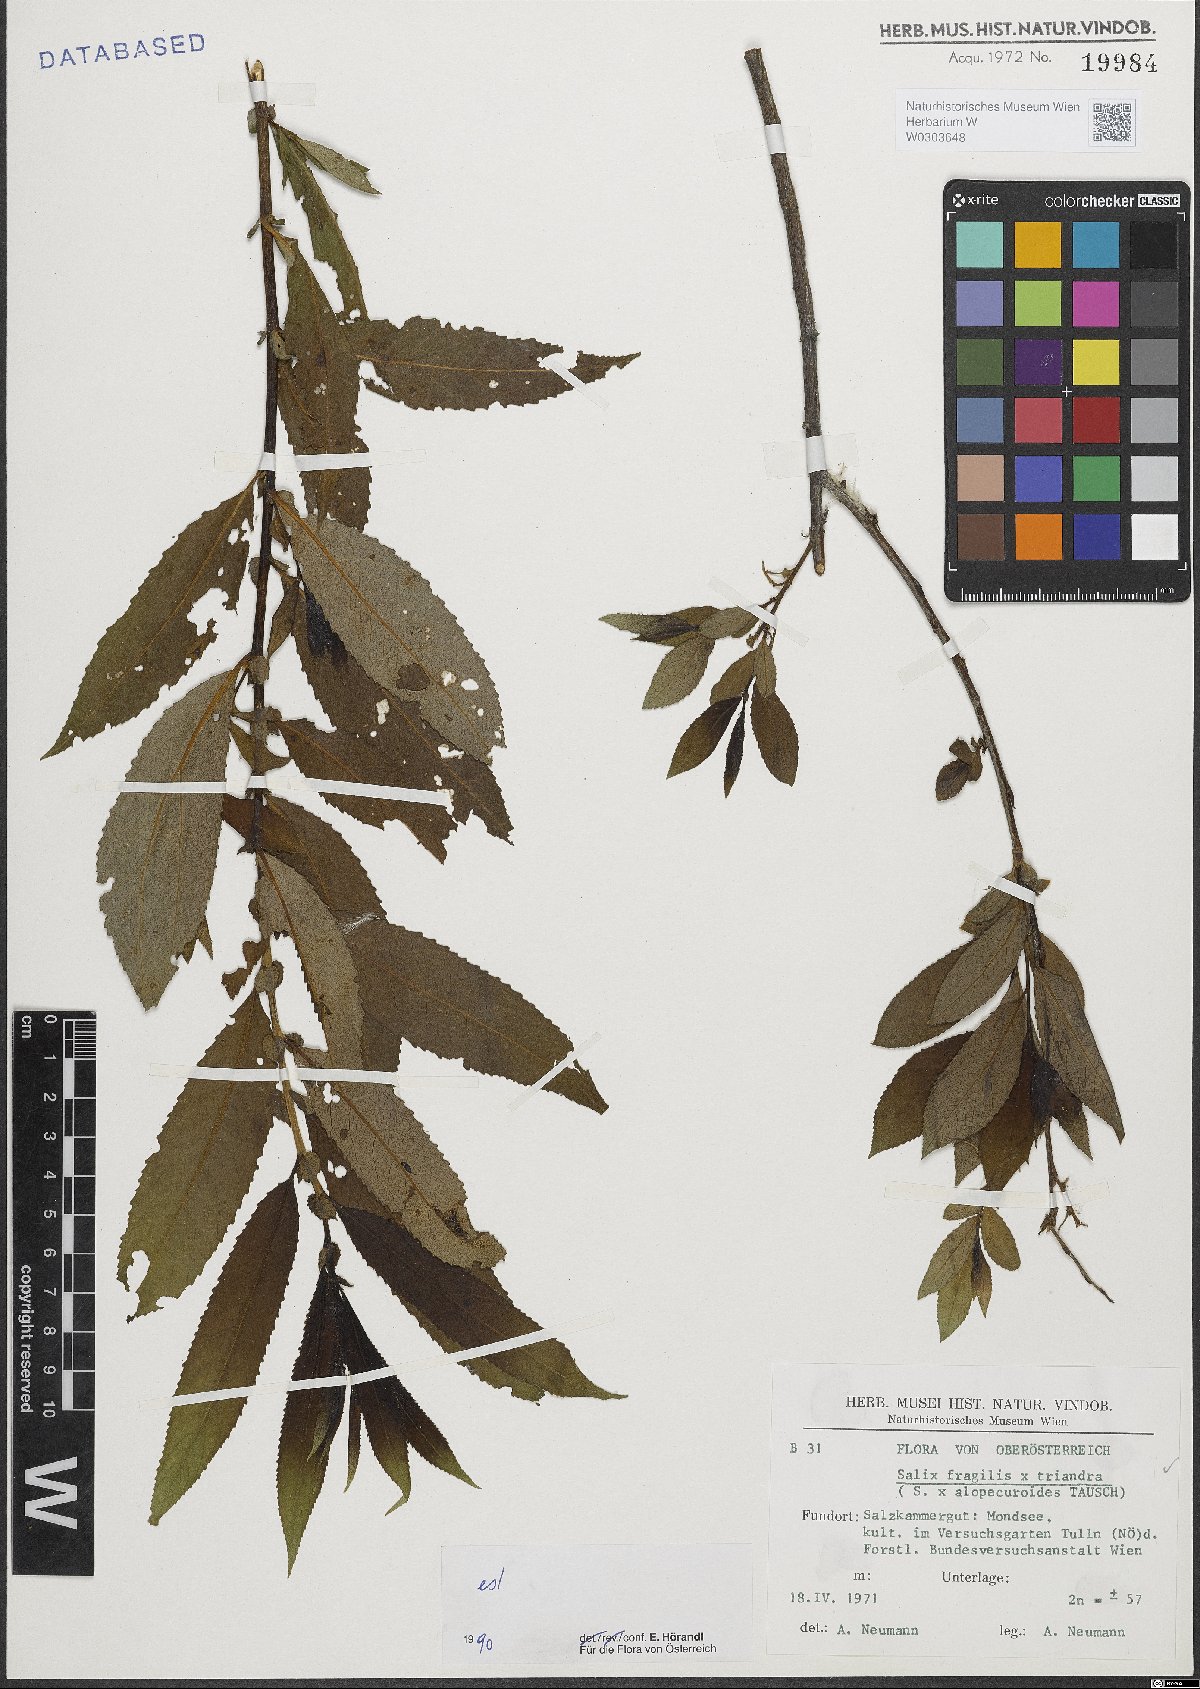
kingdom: Plantae
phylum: Tracheophyta
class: Magnoliopsida
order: Malpighiales
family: Salicaceae
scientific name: Salicaceae
